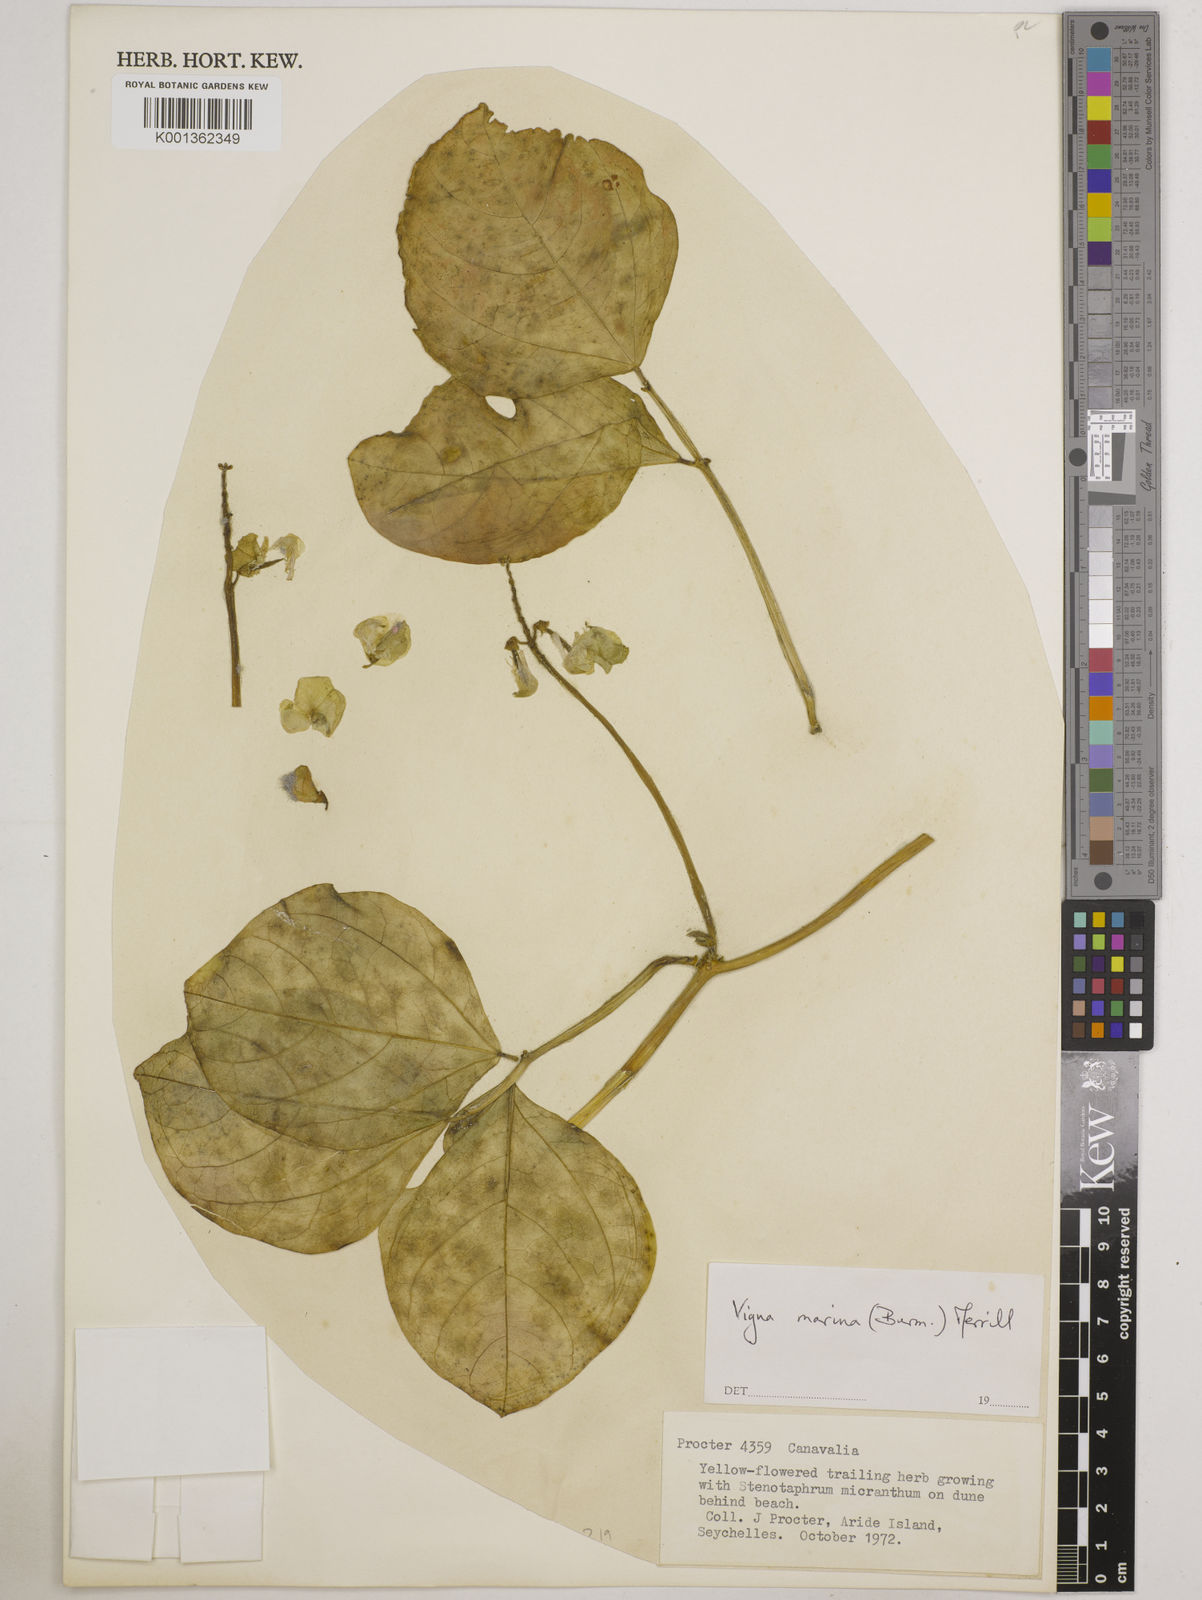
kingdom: Plantae
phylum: Tracheophyta
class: Magnoliopsida
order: Fabales
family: Fabaceae
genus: Vigna
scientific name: Vigna marina
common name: Dune-bean
